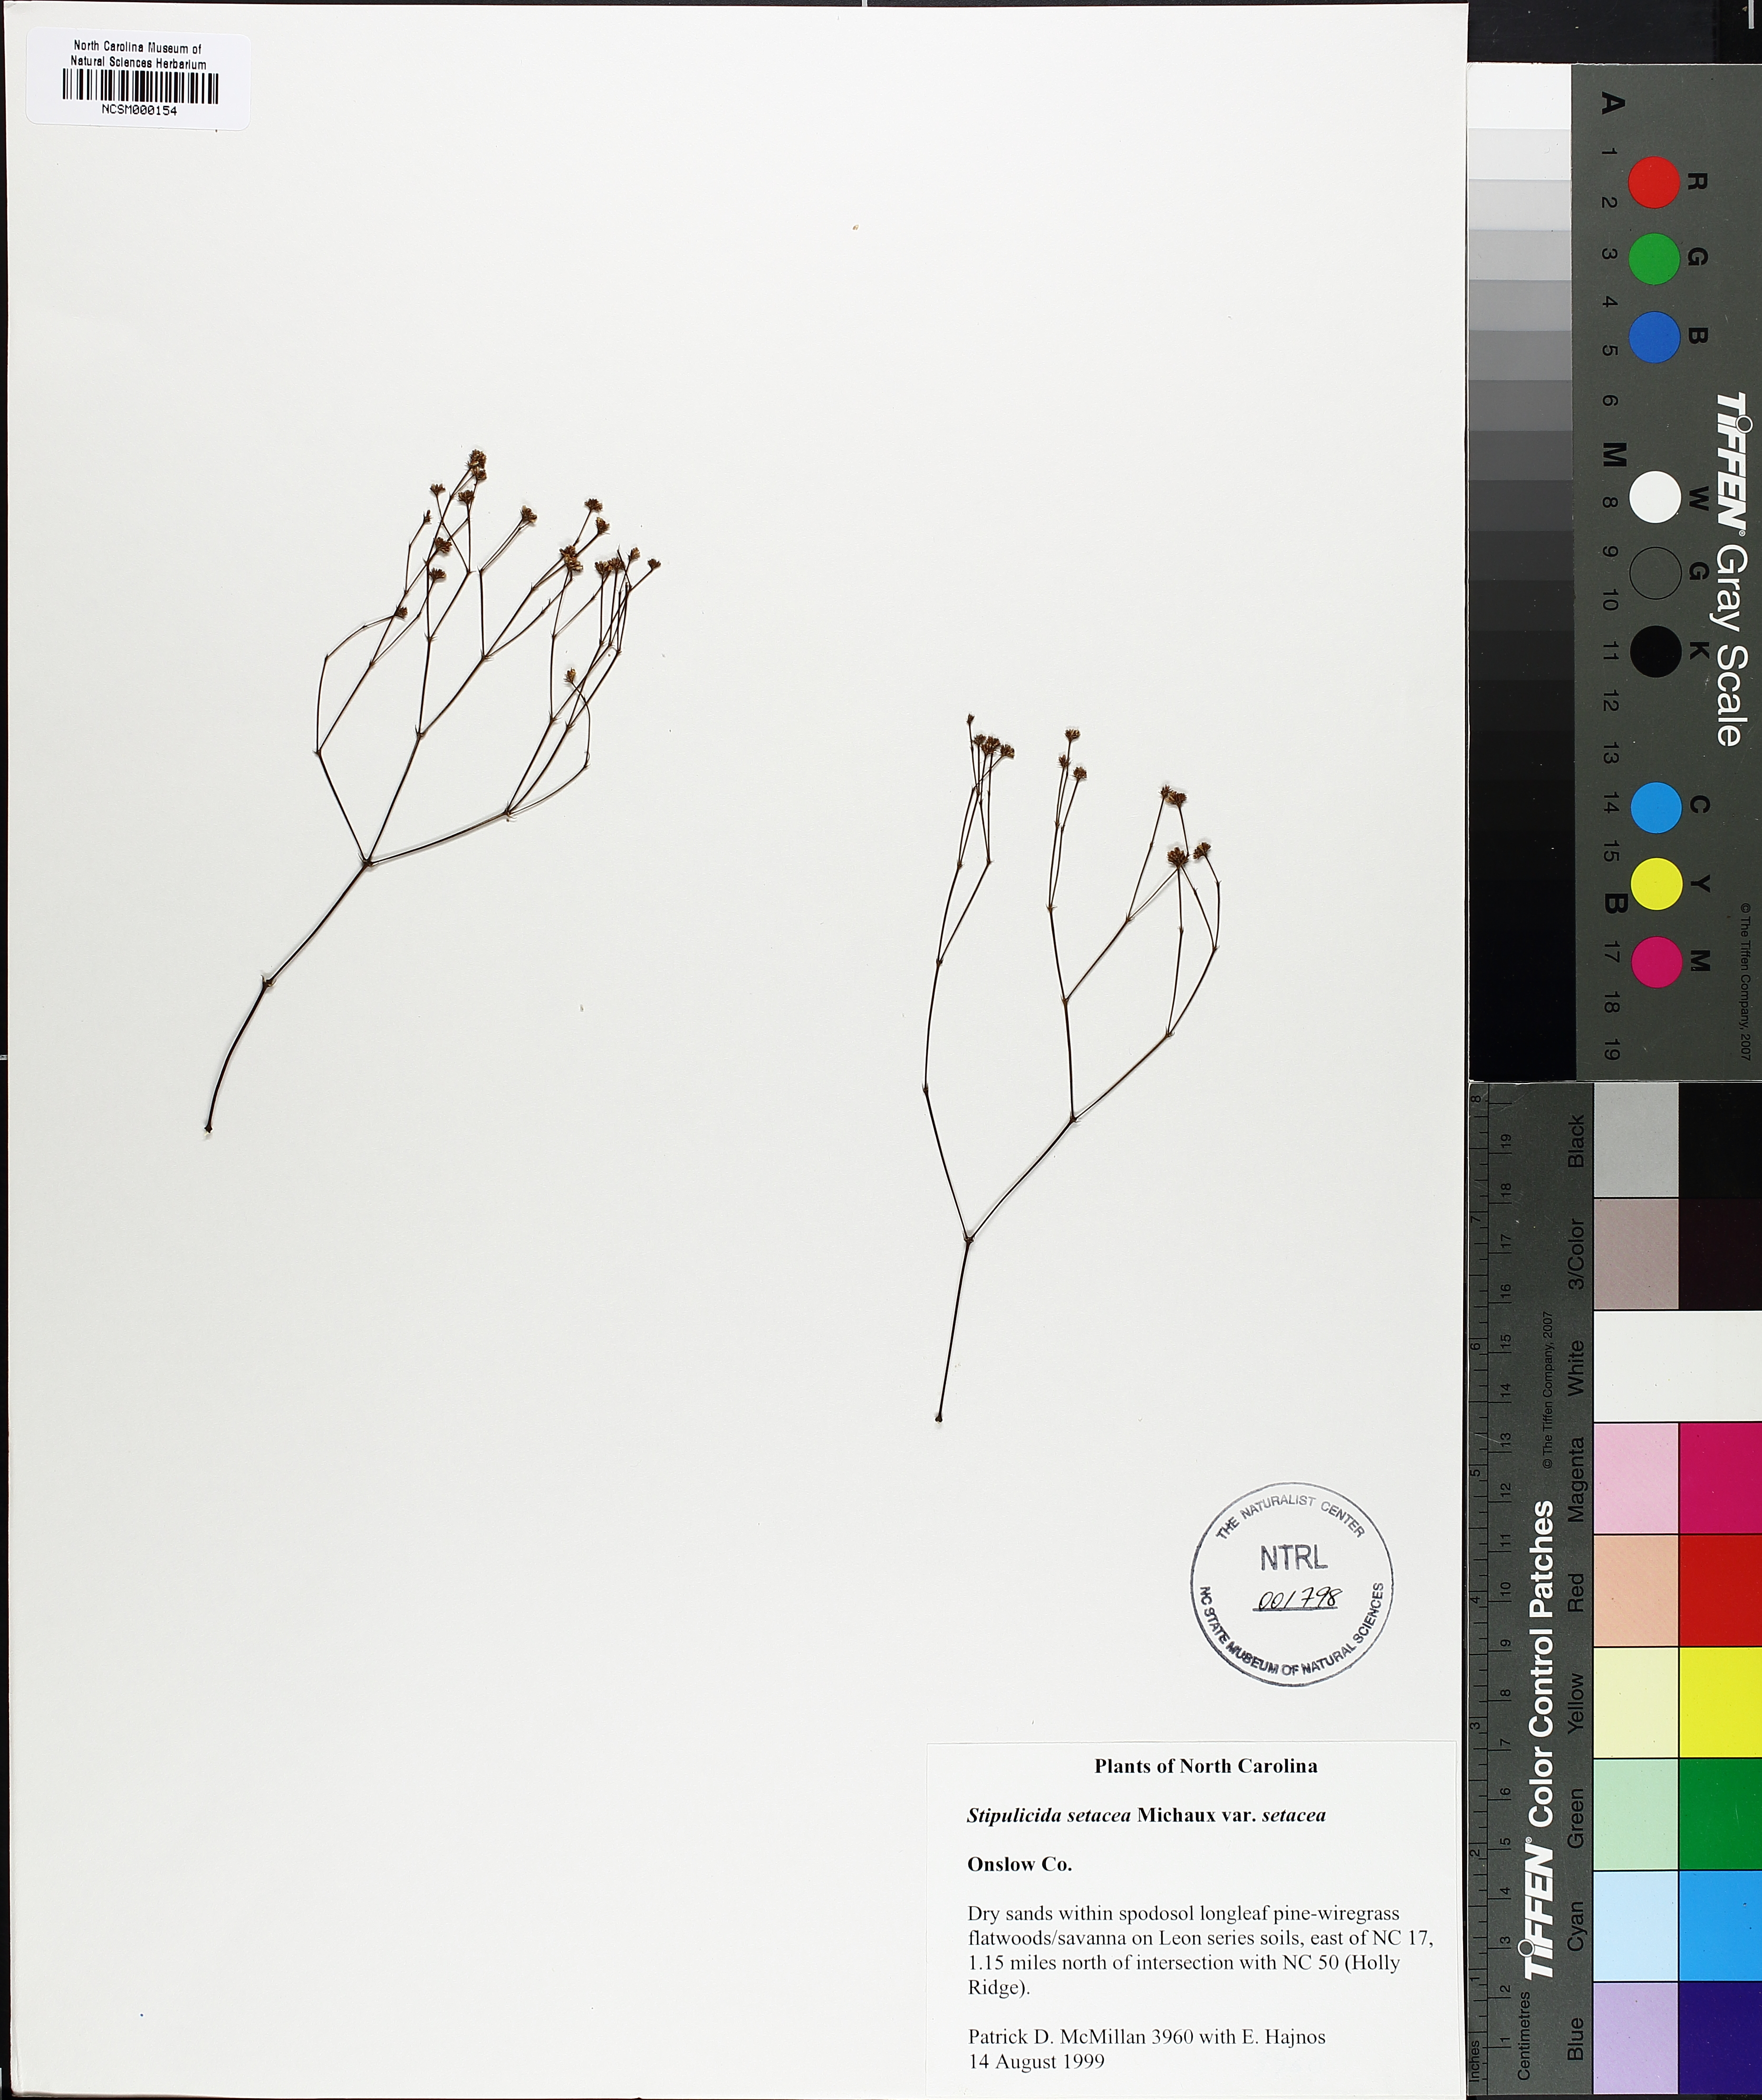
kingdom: Plantae
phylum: Tracheophyta
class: Magnoliopsida
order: Caryophyllales
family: Caryophyllaceae
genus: Stipulicida
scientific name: Stipulicida setacea
